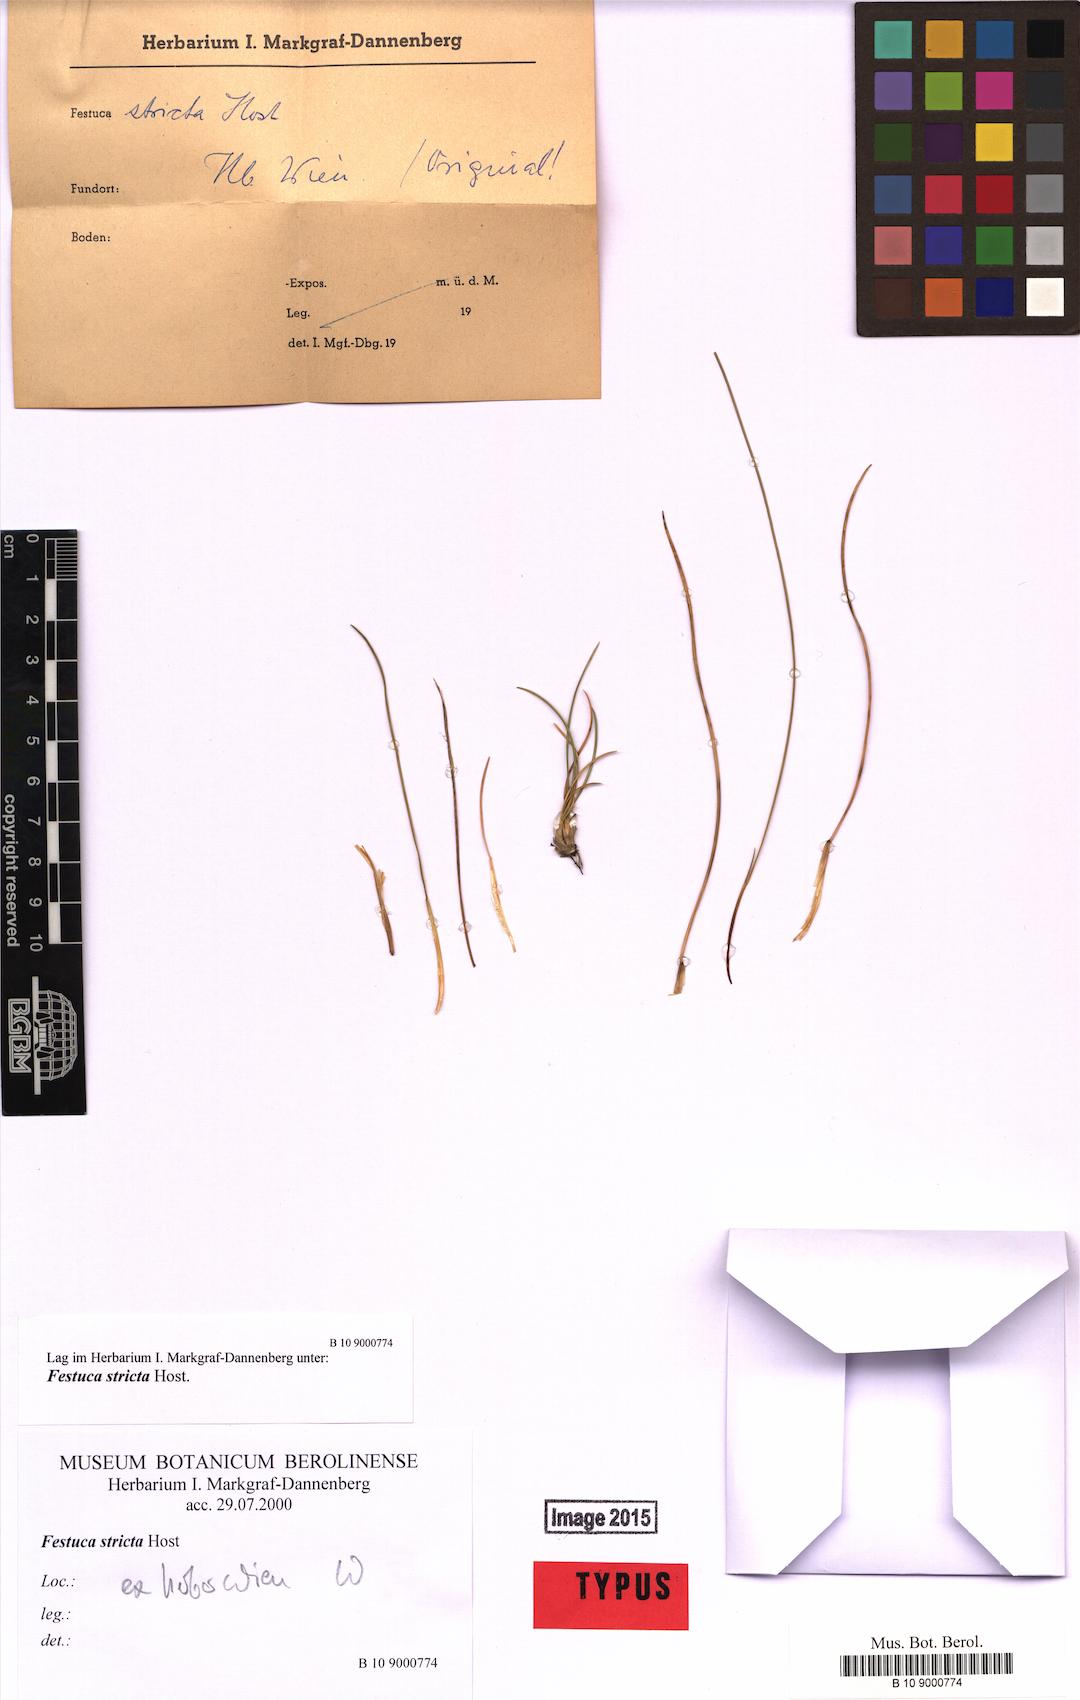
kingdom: Plantae
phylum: Tracheophyta
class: Liliopsida
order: Poales
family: Poaceae
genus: Festuca
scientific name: Festuca stricta
